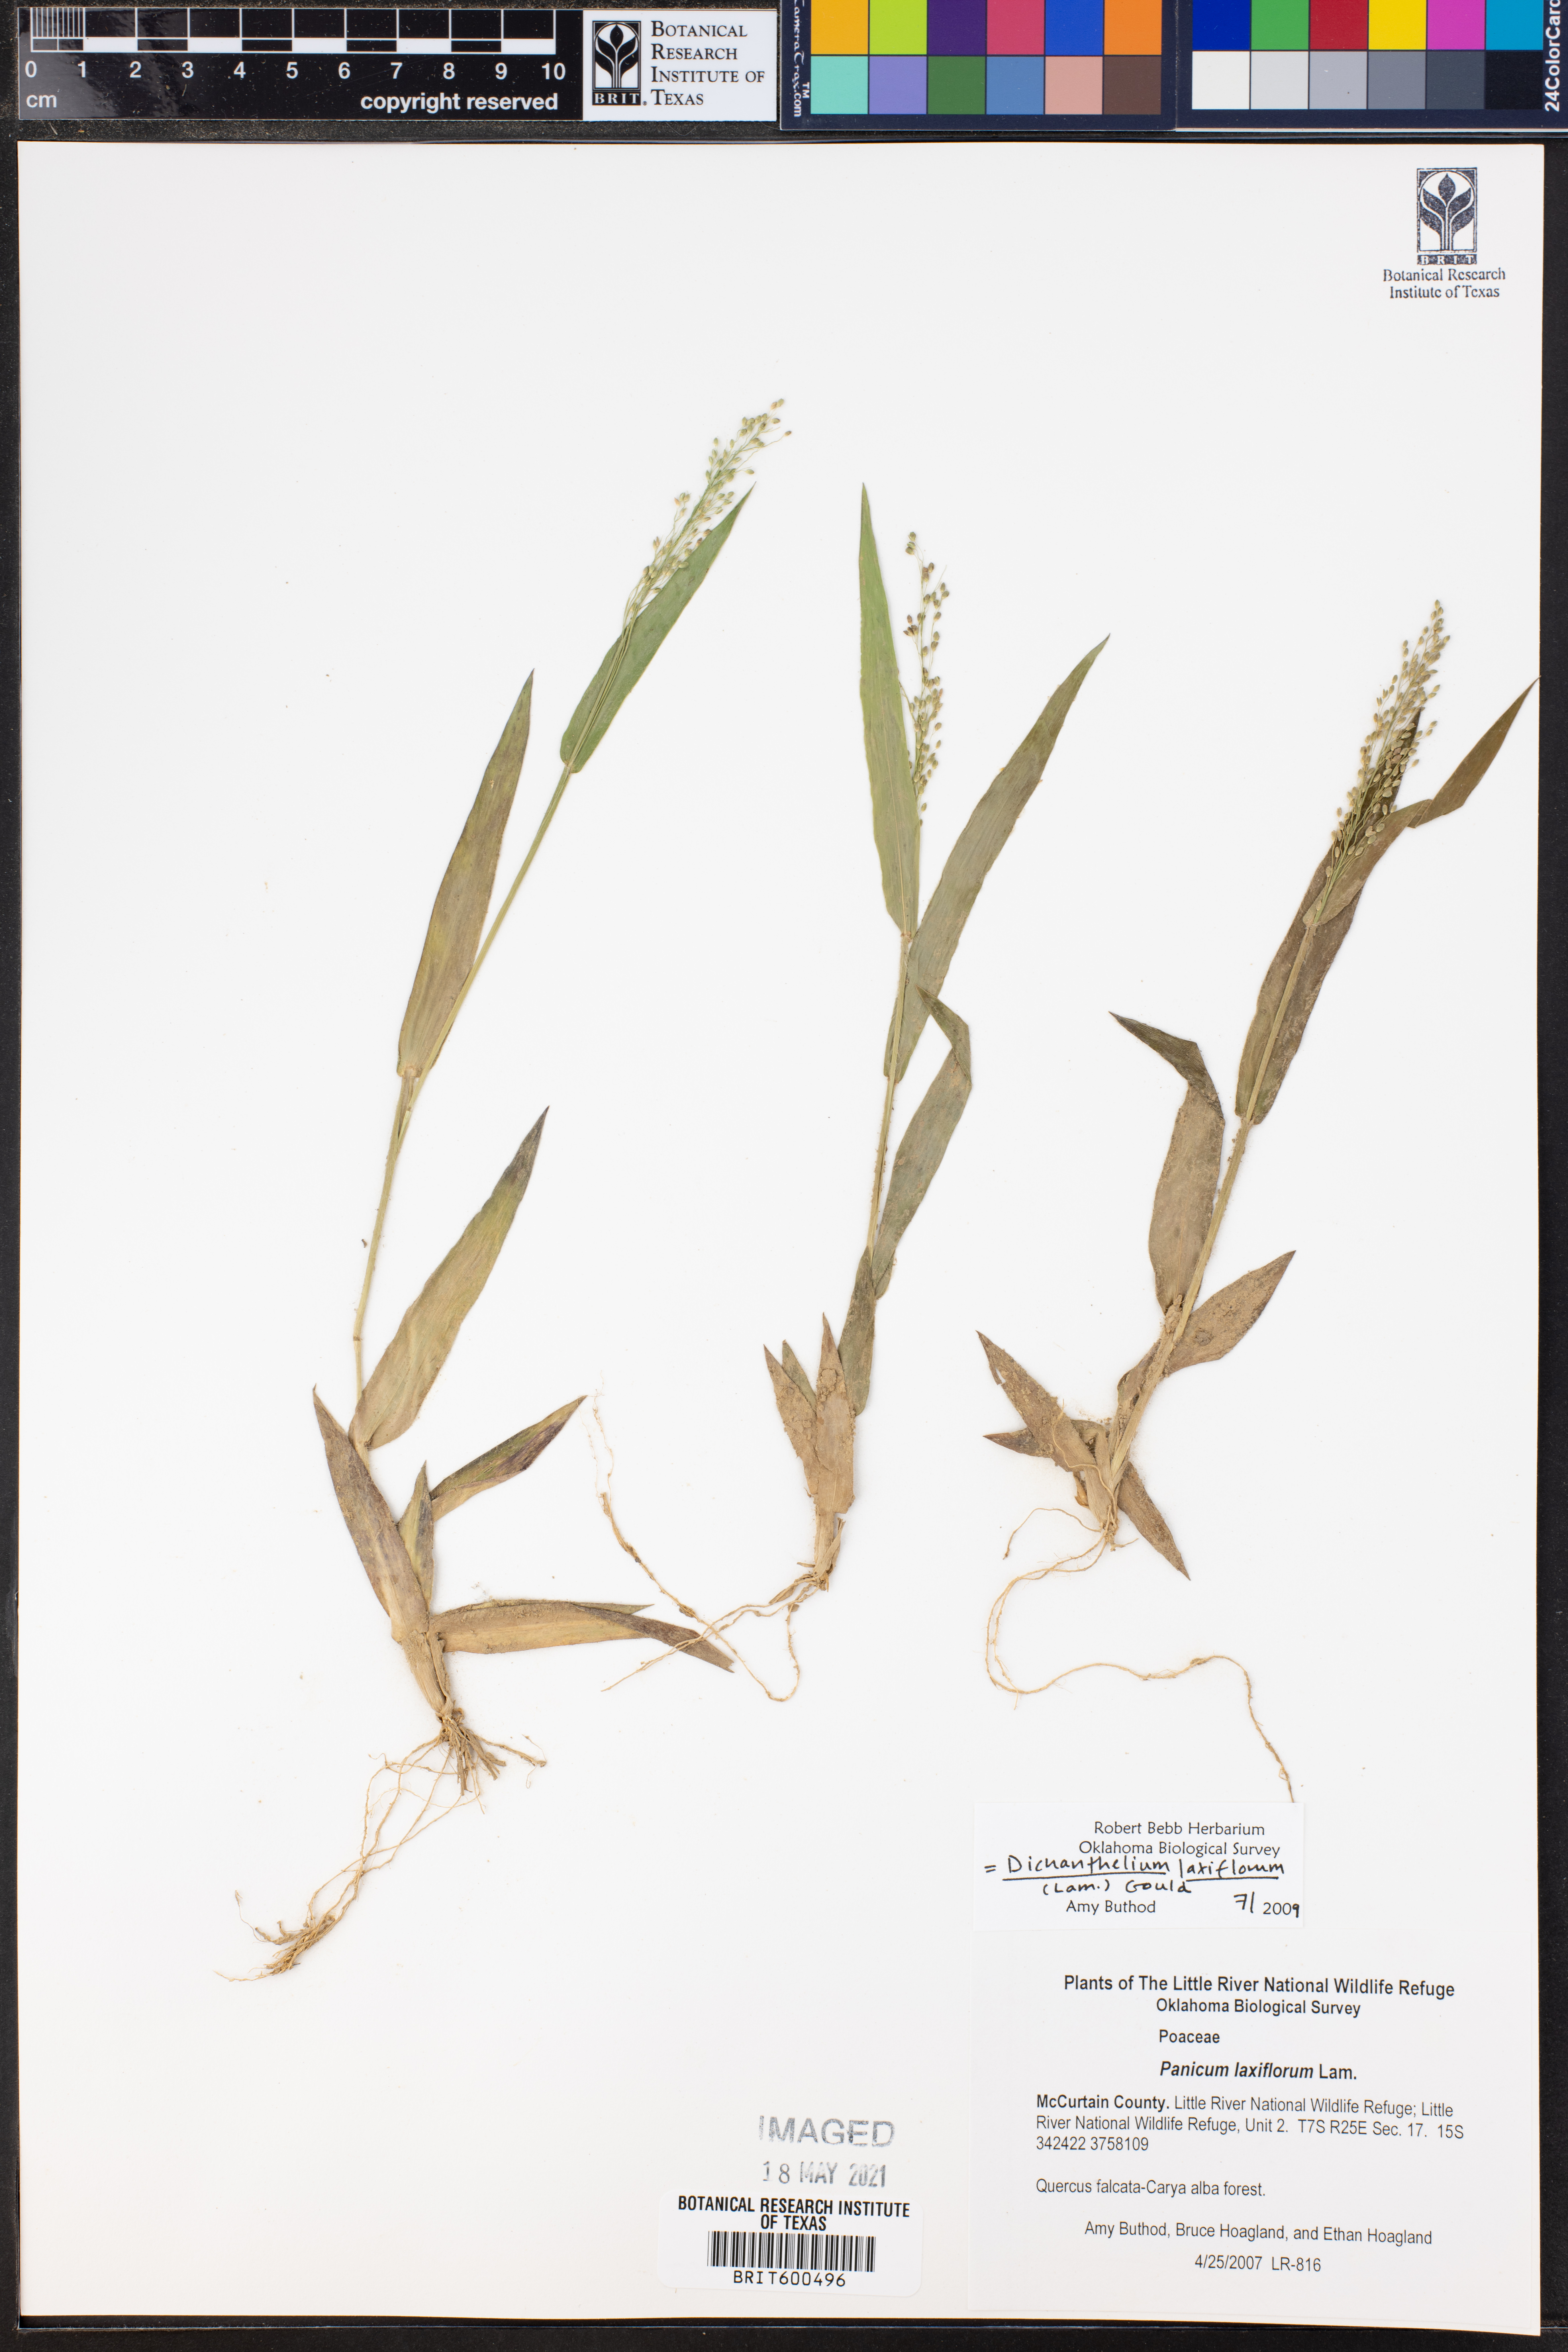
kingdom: Plantae
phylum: Tracheophyta
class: Liliopsida
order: Poales
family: Poaceae
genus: Dichanthelium
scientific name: Dichanthelium laxiflorum
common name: Soft-tuft panic grass
